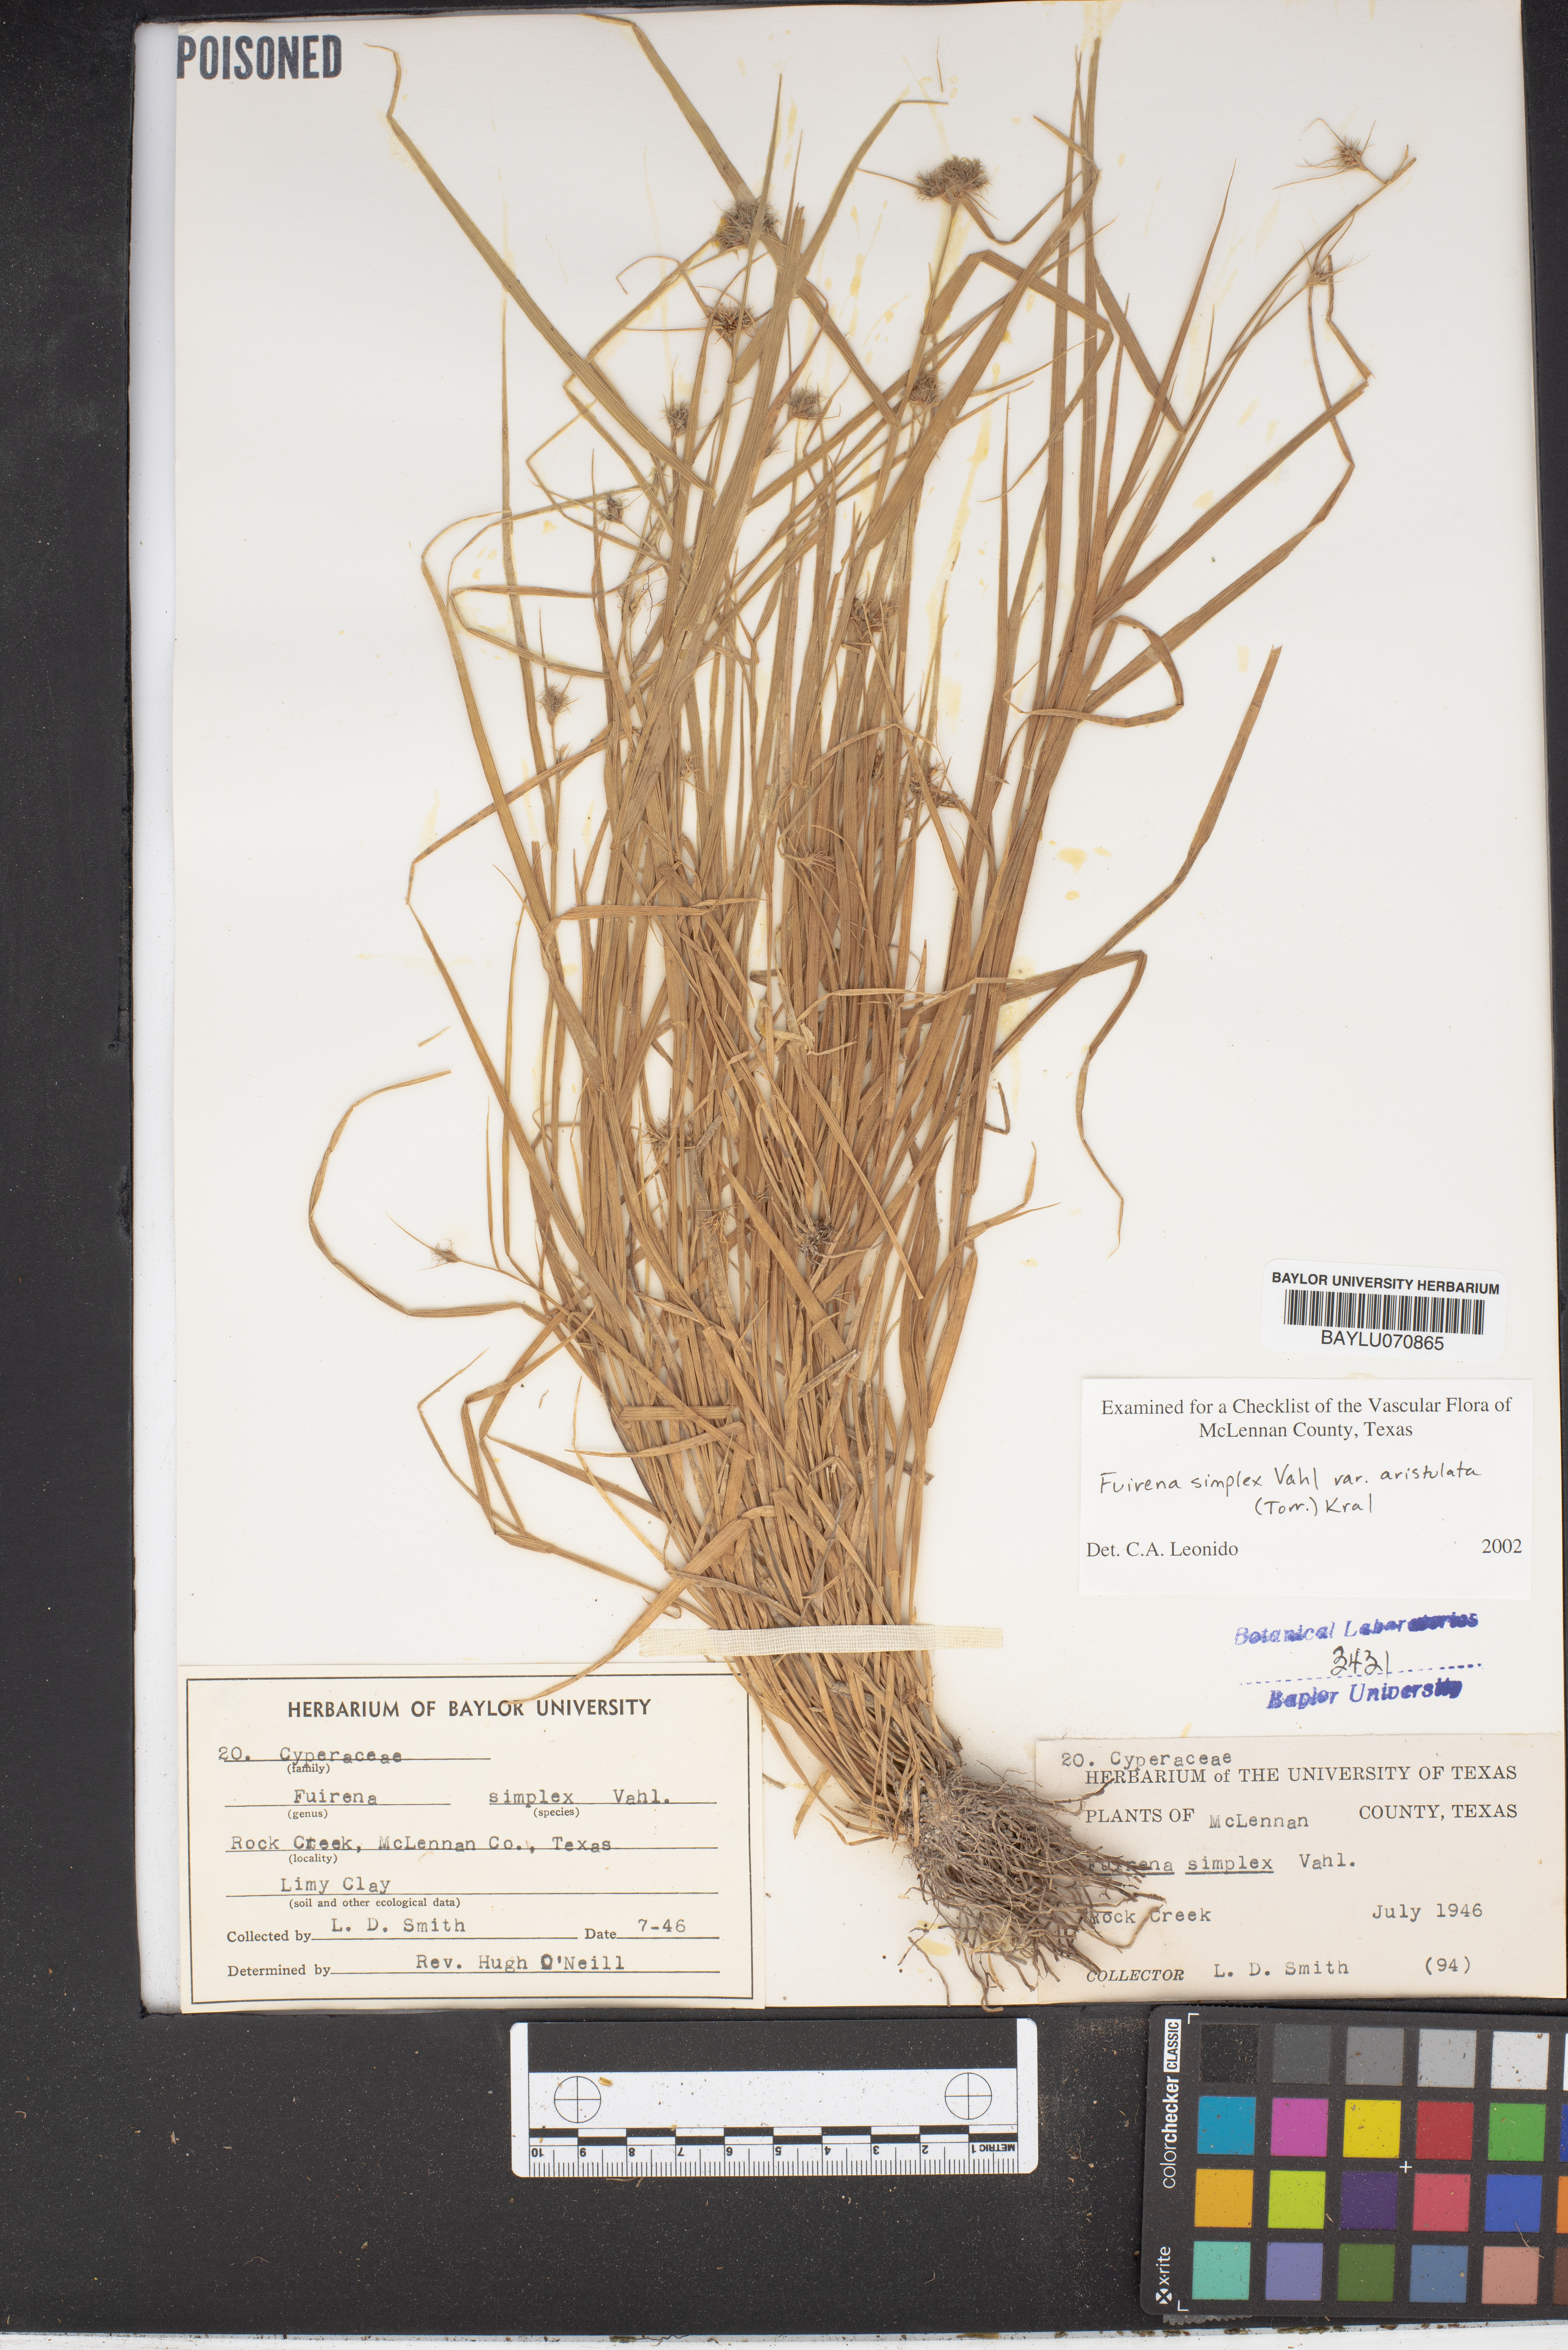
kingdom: Plantae
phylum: Tracheophyta
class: Liliopsida
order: Poales
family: Cyperaceae
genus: Fuirena
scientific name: Fuirena simplex
